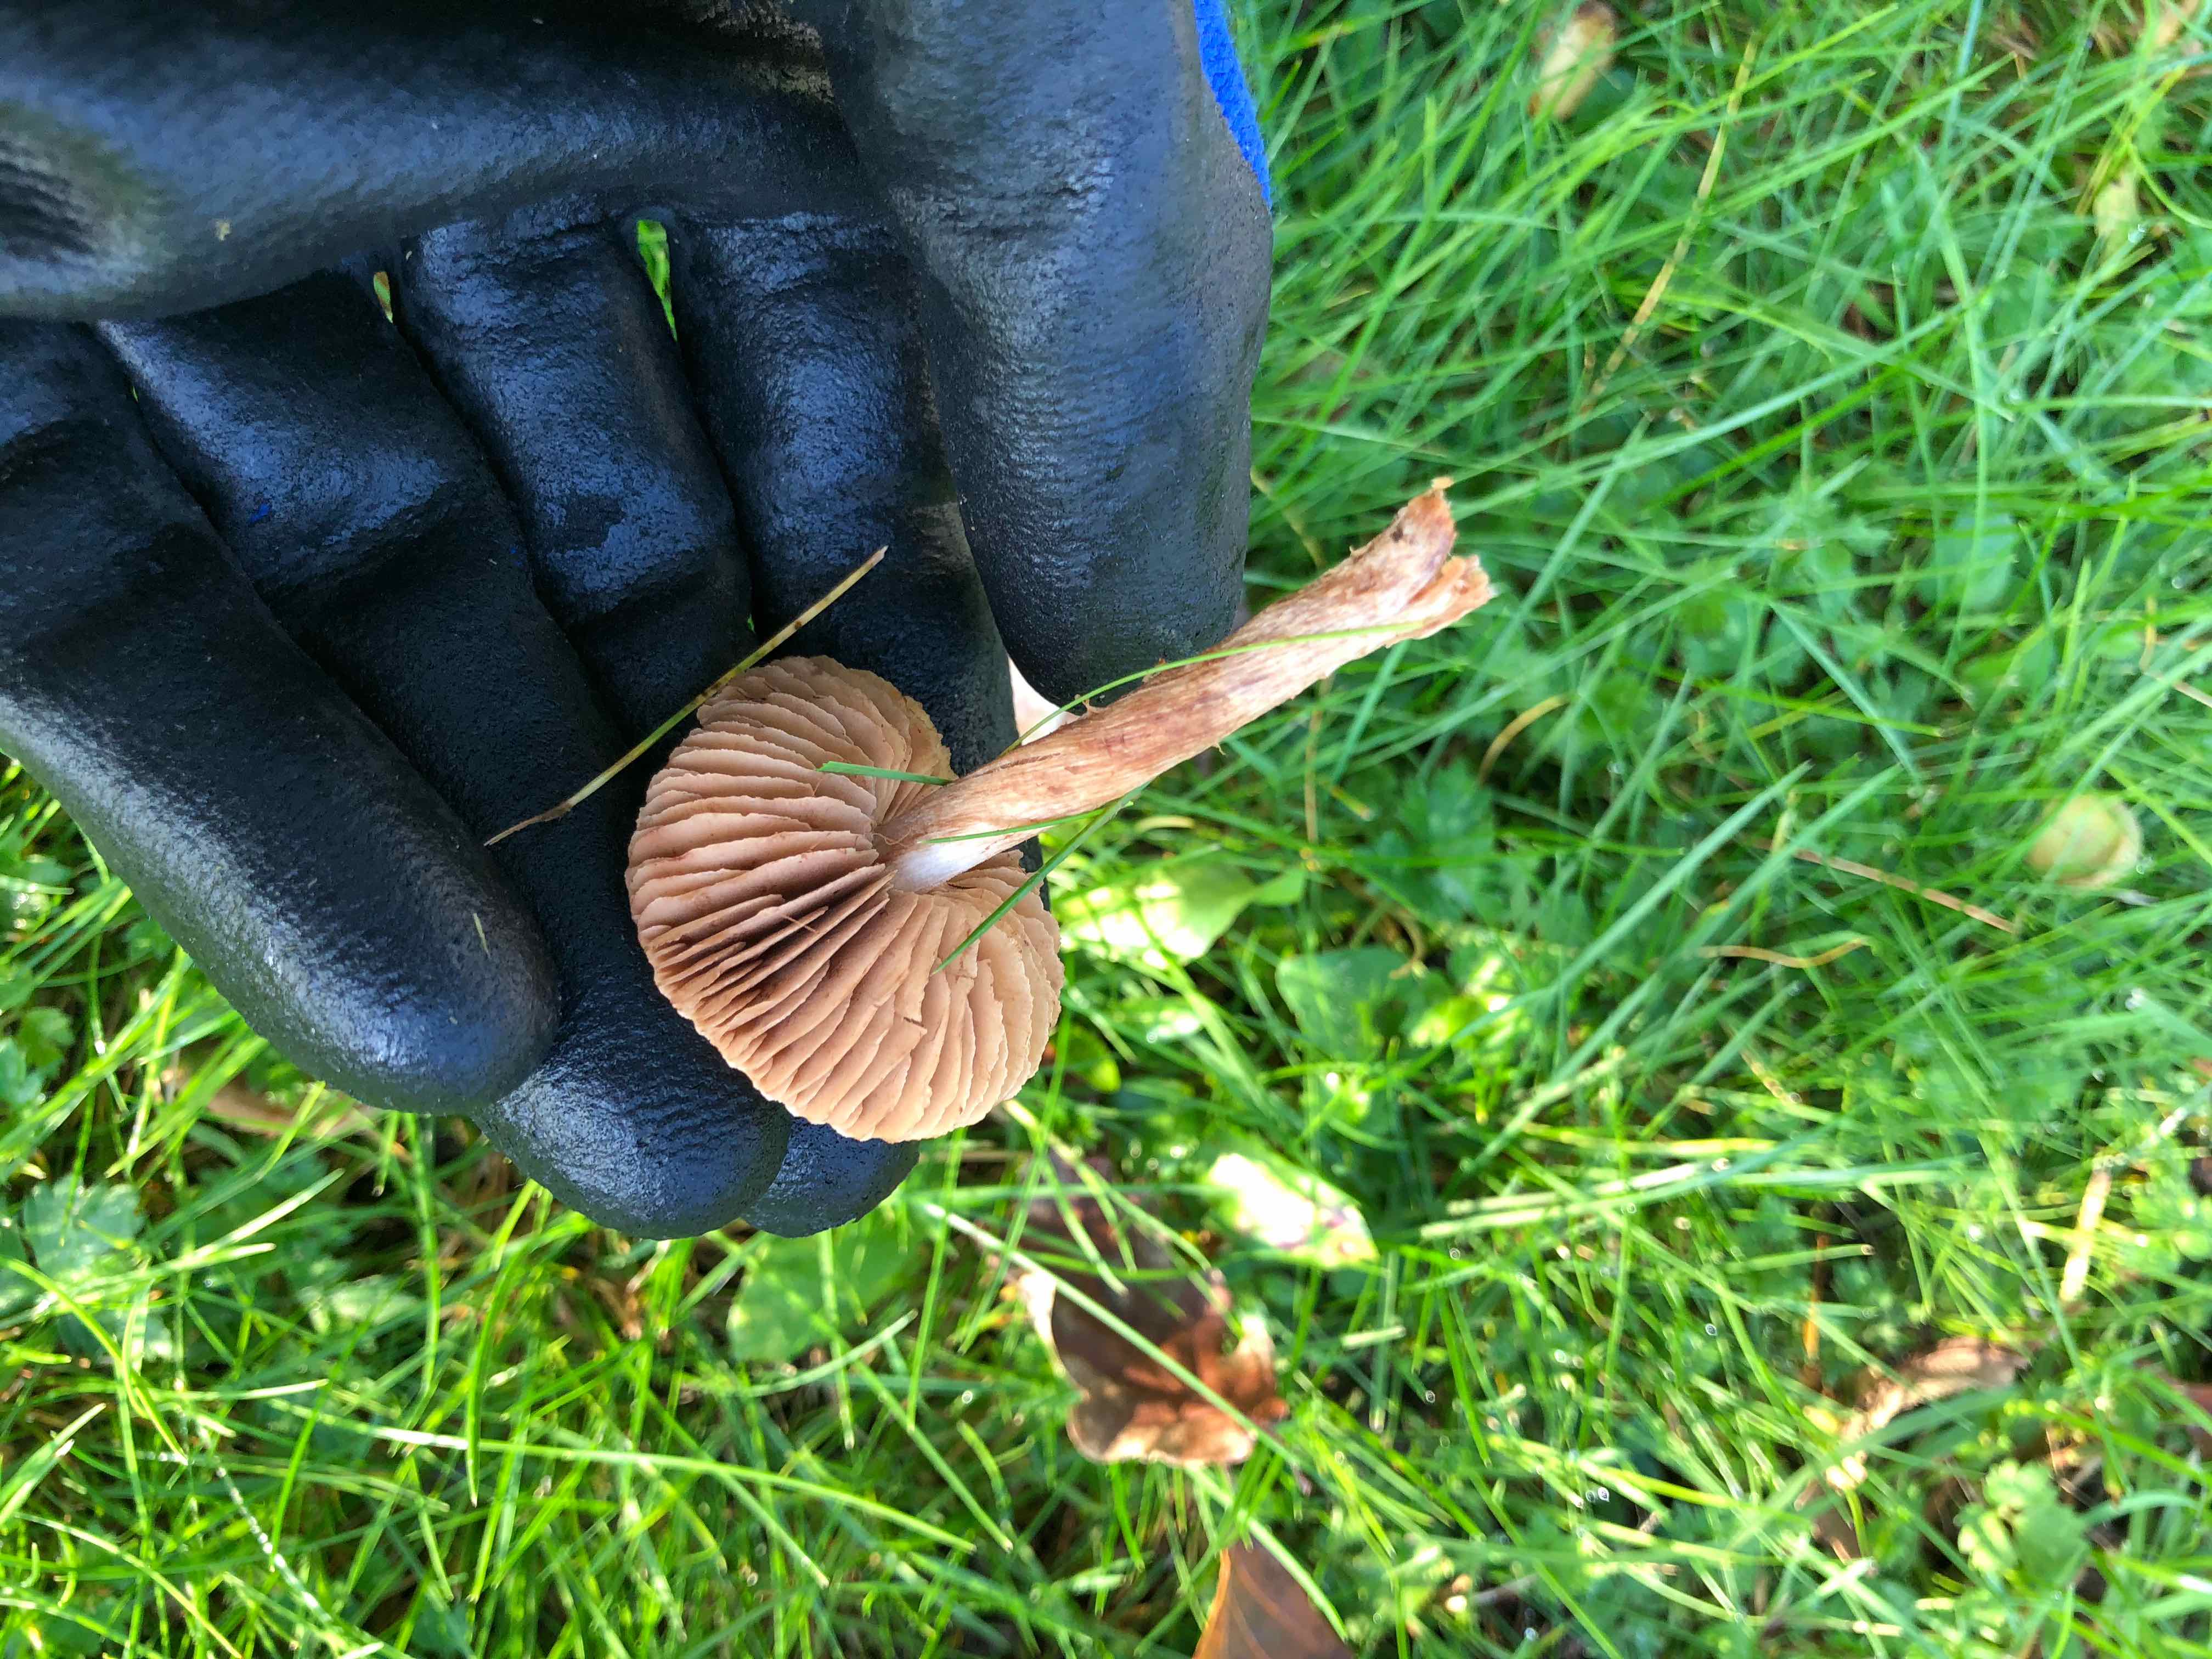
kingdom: Fungi
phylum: Basidiomycota
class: Agaricomycetes
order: Agaricales
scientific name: Agaricales
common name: champignonordenen
